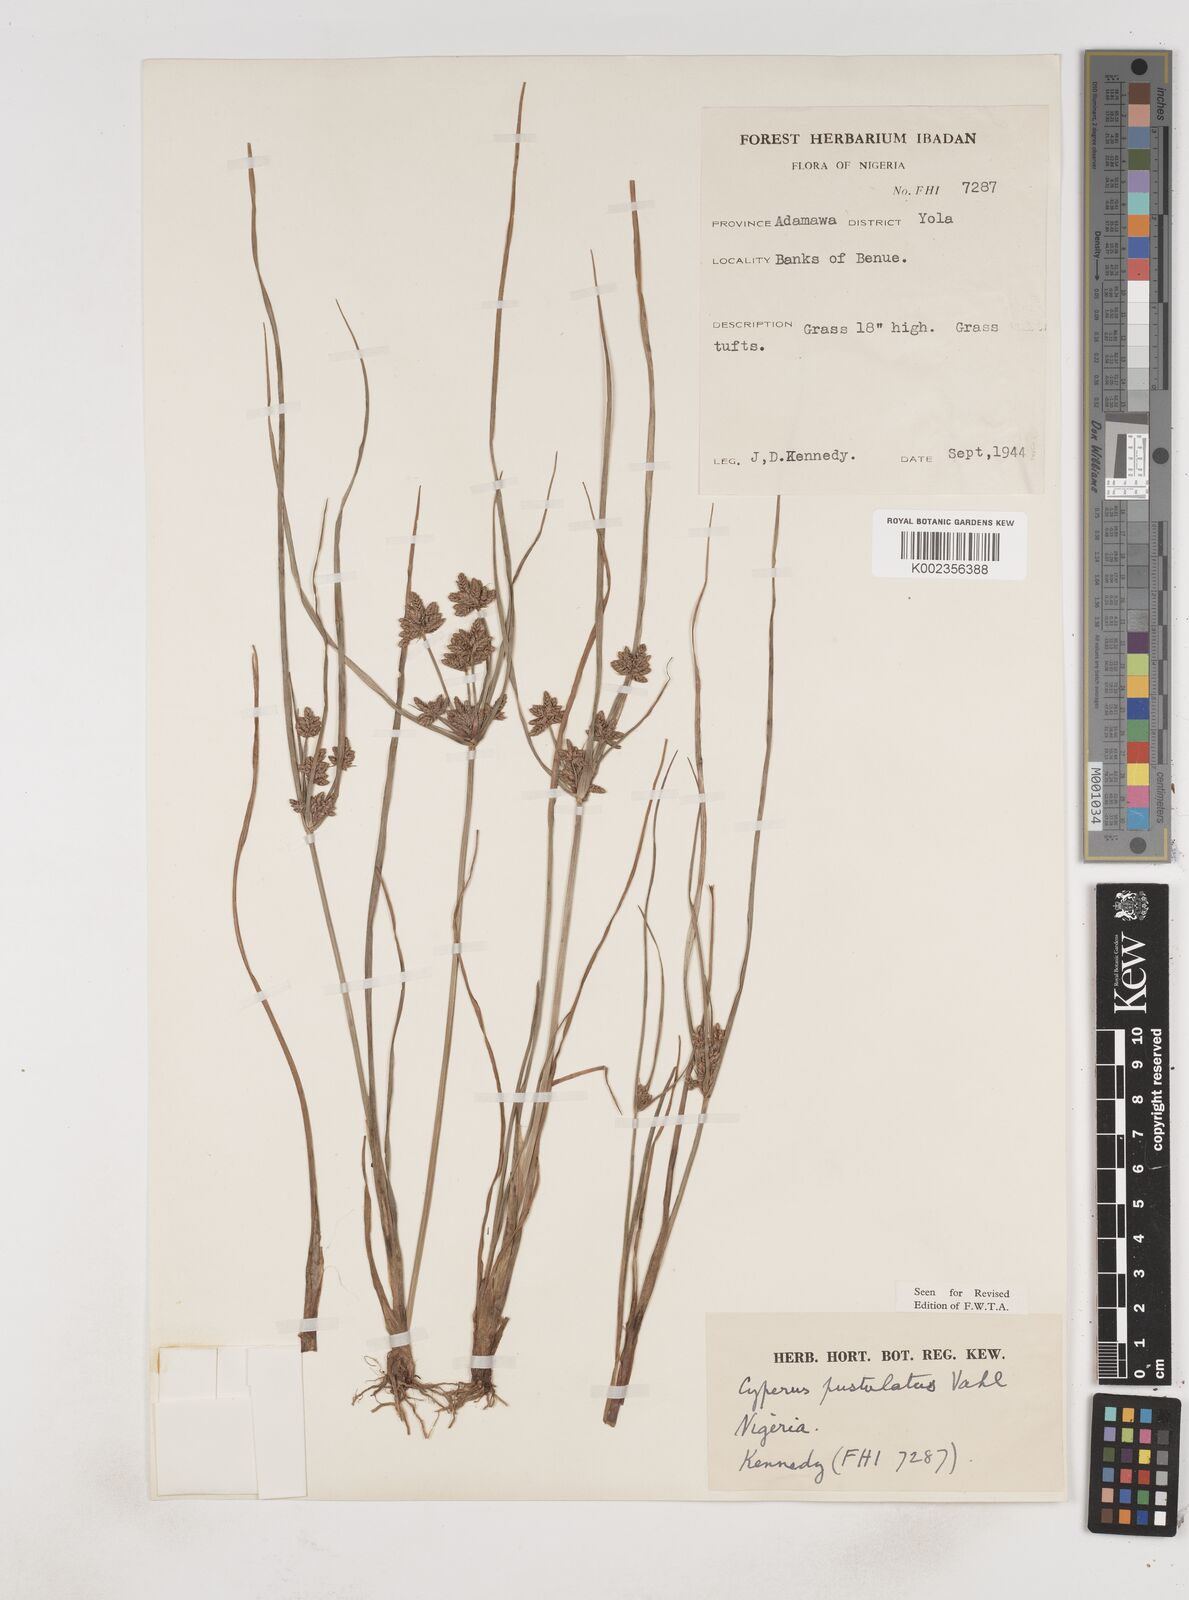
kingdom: Plantae
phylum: Tracheophyta
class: Liliopsida
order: Poales
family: Cyperaceae
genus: Cyperus
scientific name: Cyperus pustulatus
